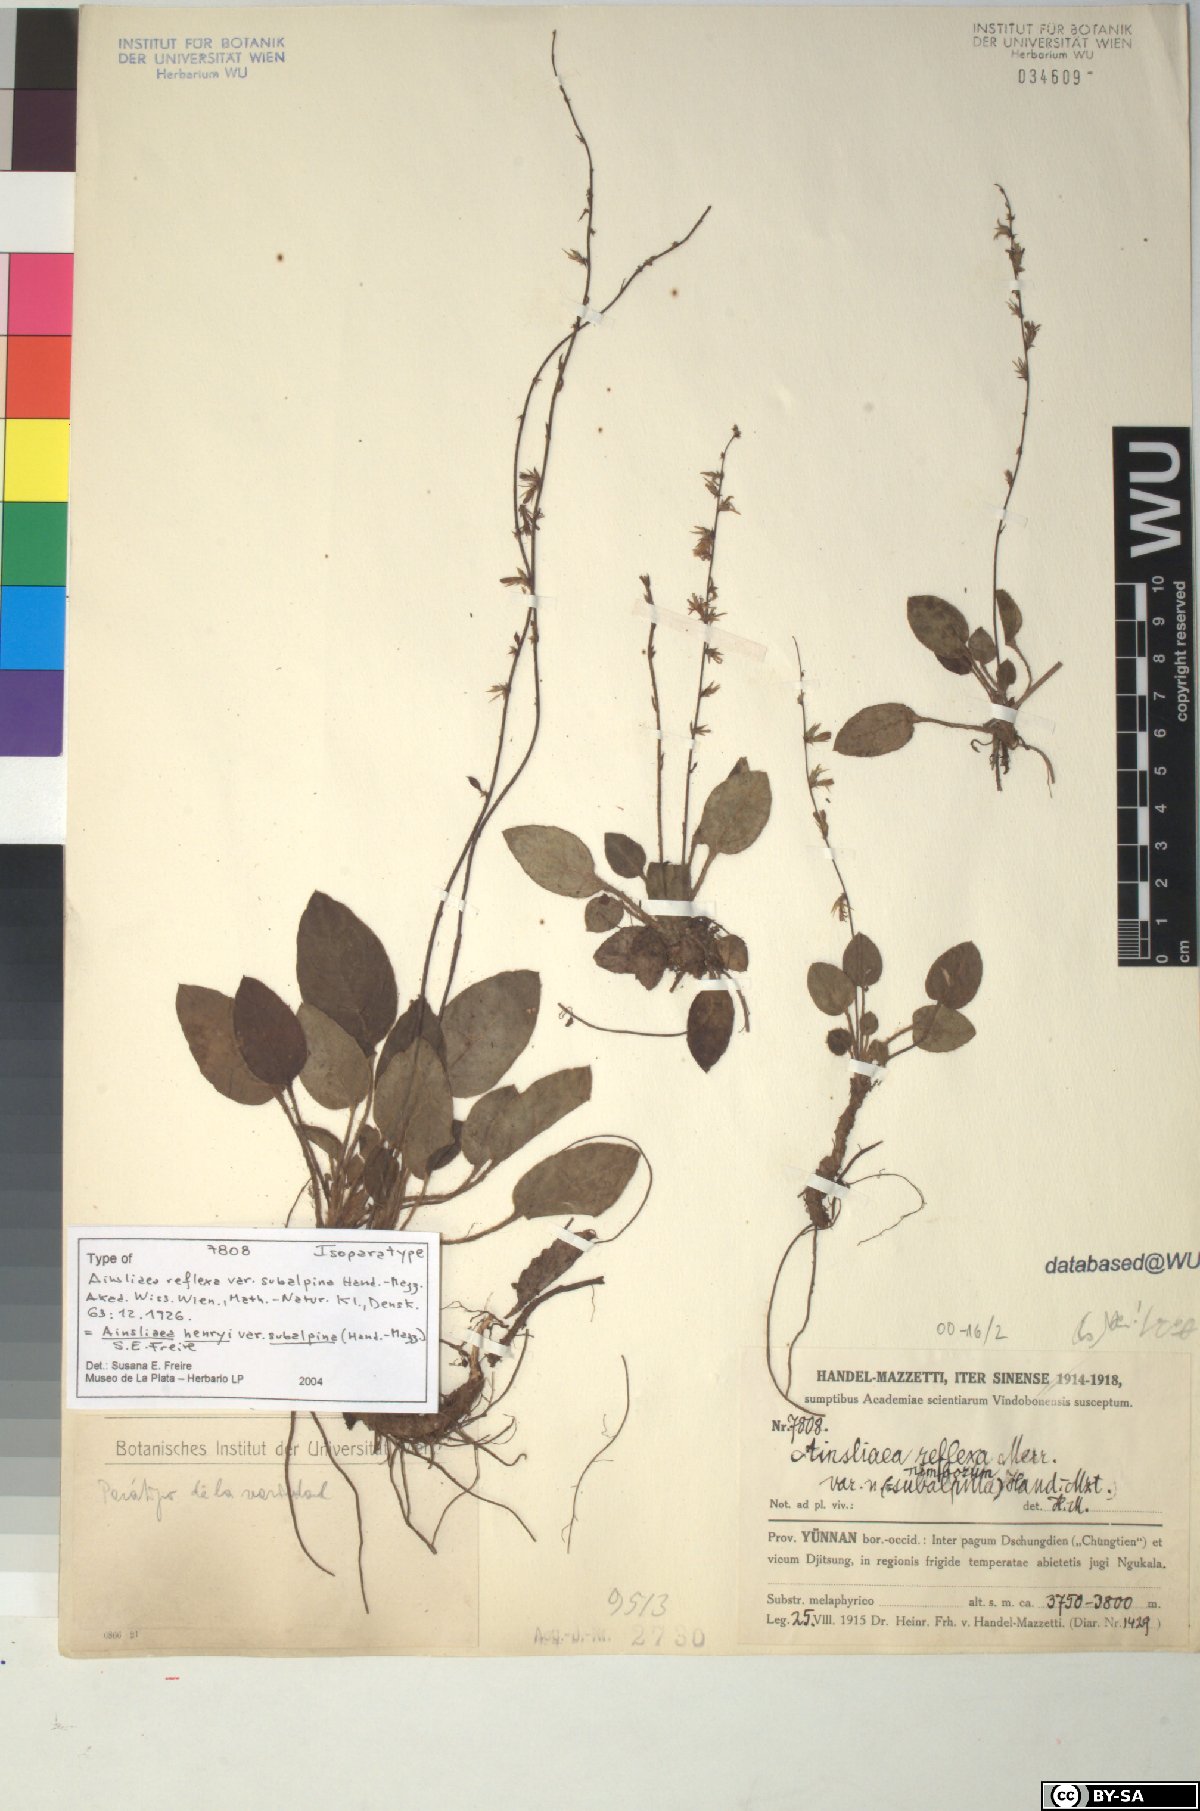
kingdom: Plantae
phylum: Tracheophyta
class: Magnoliopsida
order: Asterales
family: Asteraceae
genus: Ainsliaea
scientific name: Ainsliaea henryi
